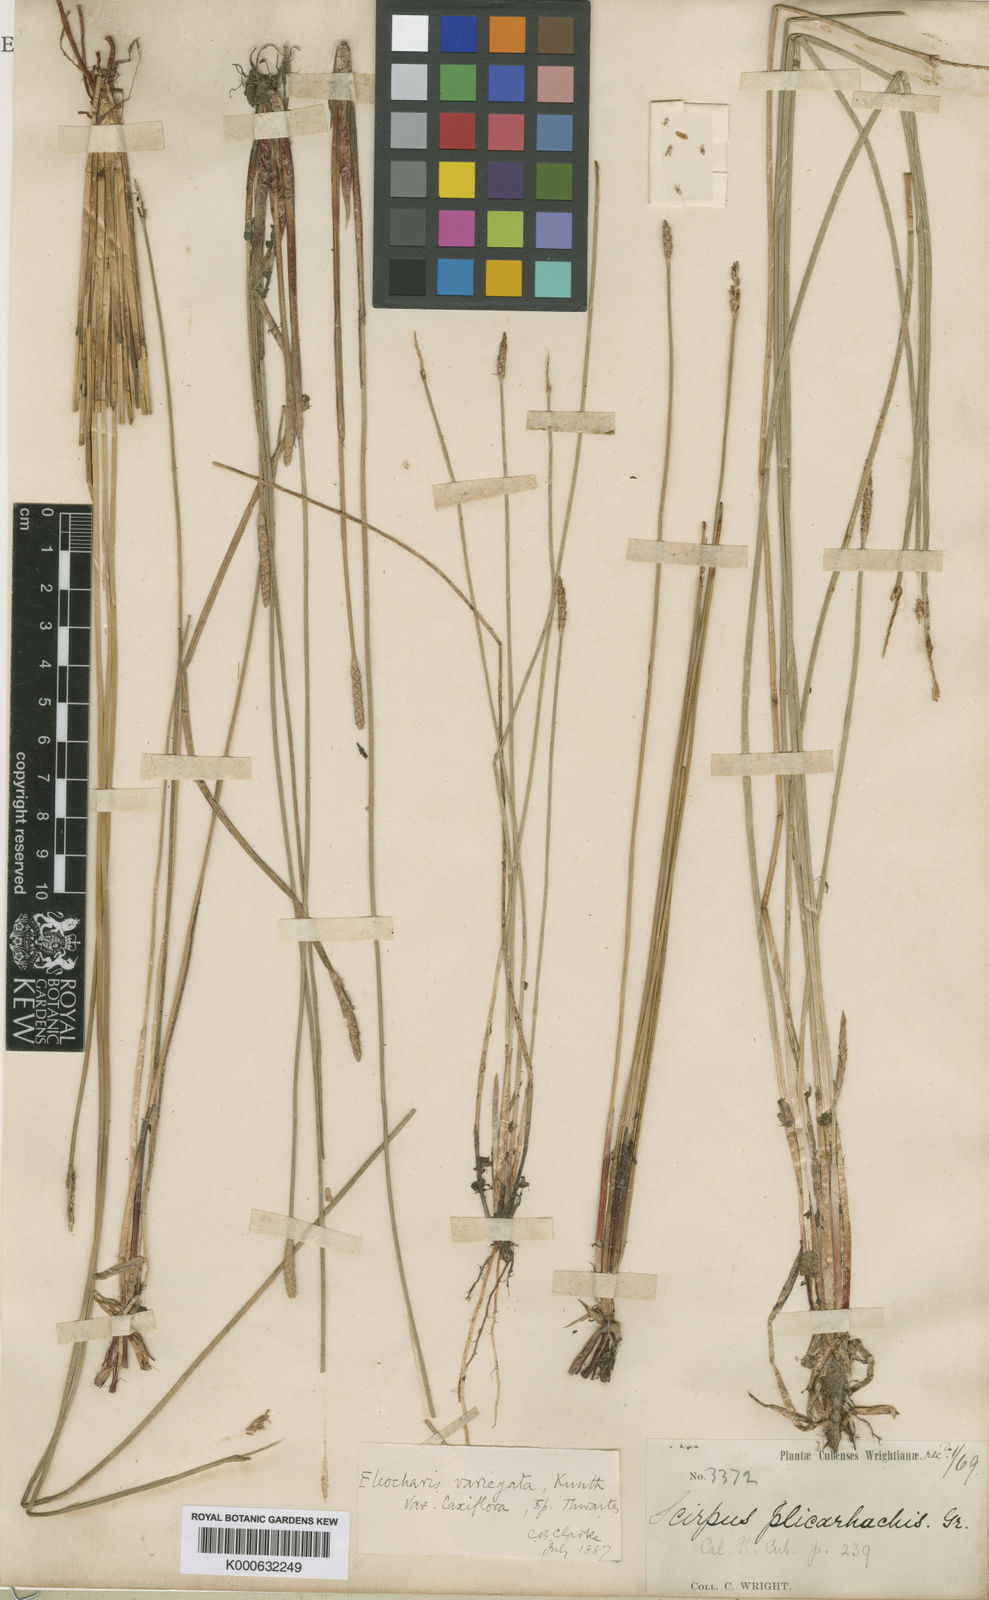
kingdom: Plantae
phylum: Tracheophyta
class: Liliopsida
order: Poales
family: Cyperaceae
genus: Eleocharis
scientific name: Eleocharis plicarhachis
